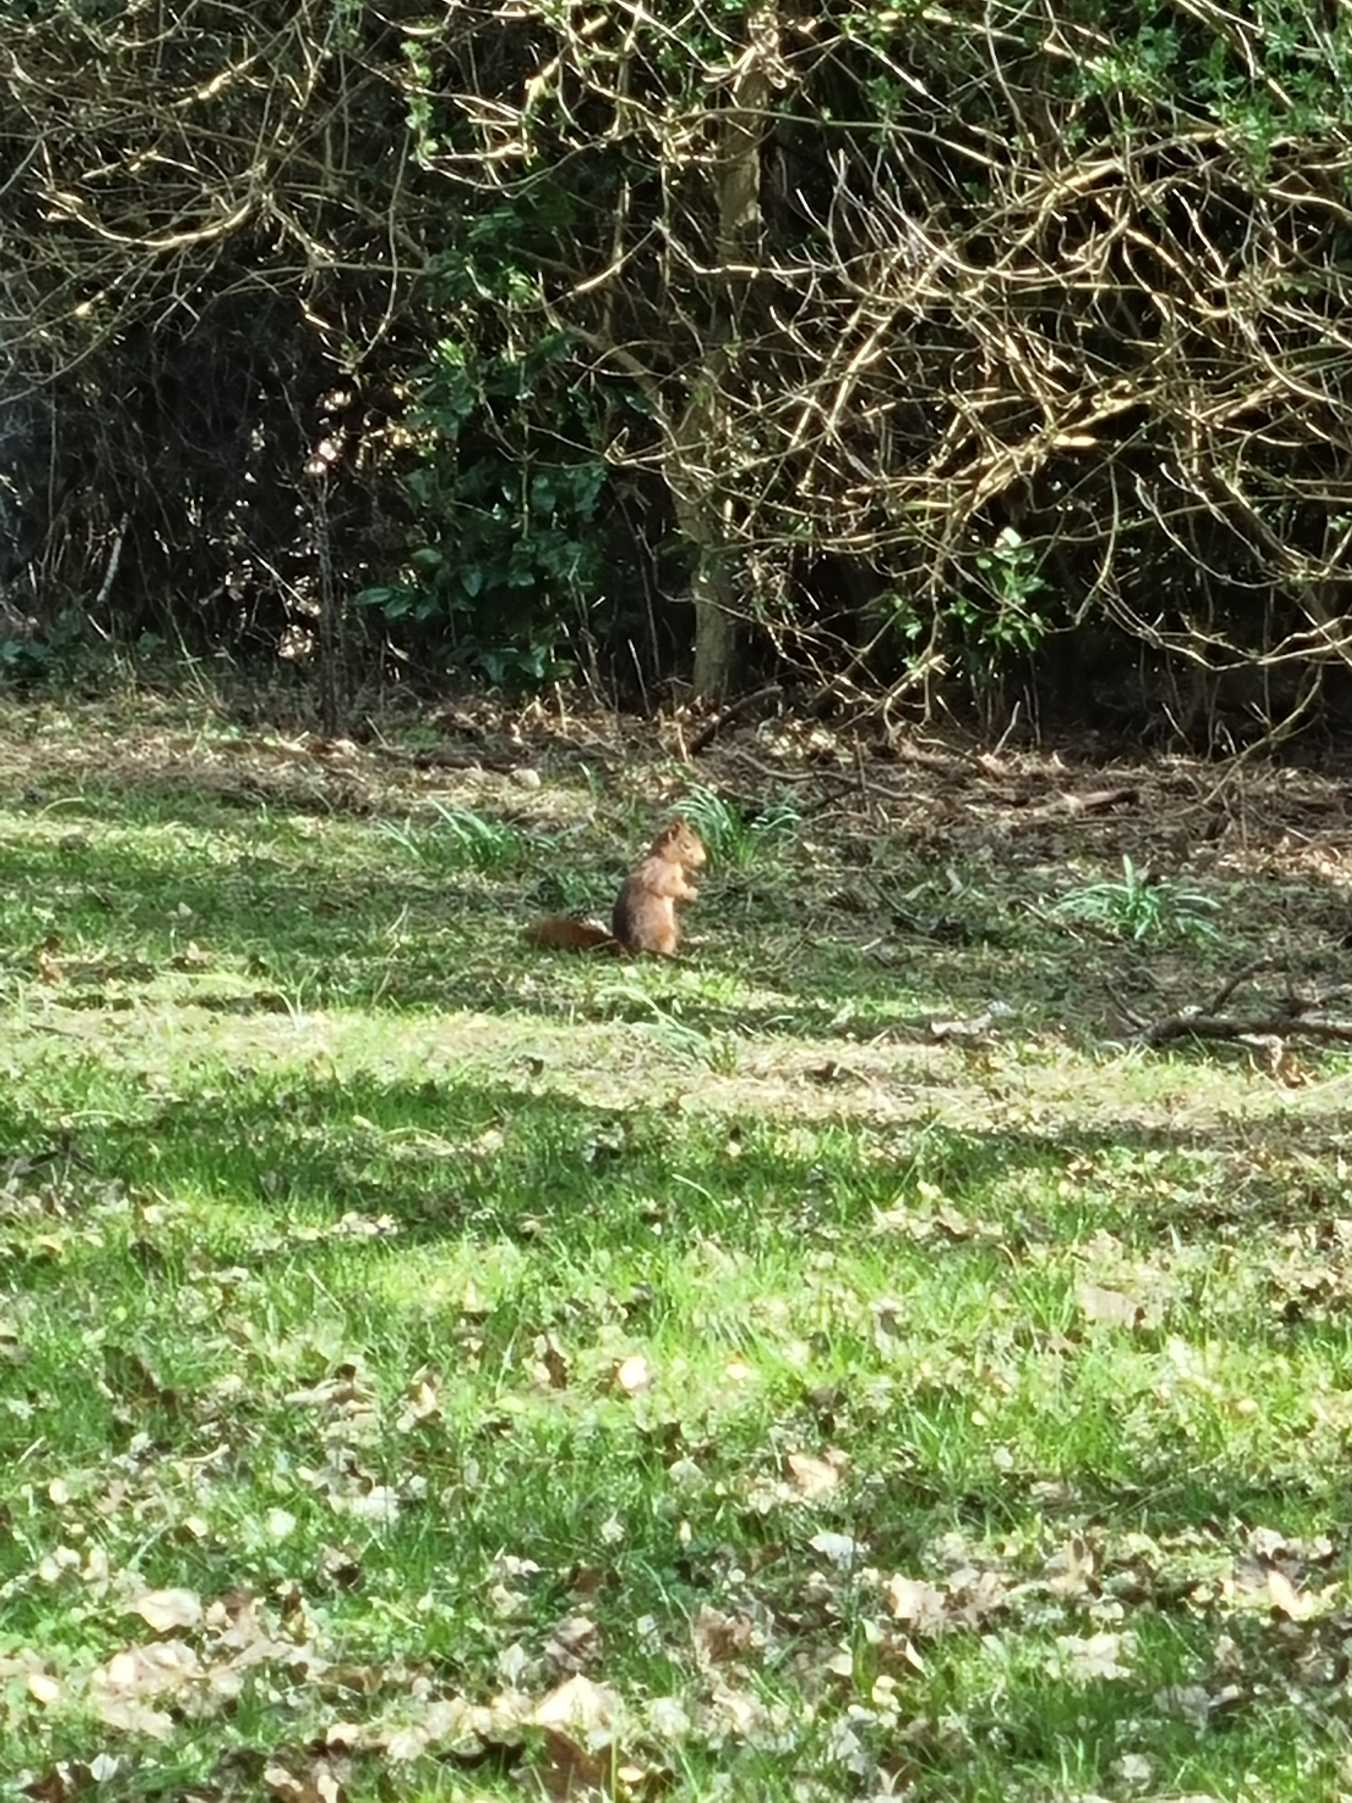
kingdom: Animalia
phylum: Chordata
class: Mammalia
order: Rodentia
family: Sciuridae
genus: Sciurus
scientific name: Sciurus vulgaris
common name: Egern
